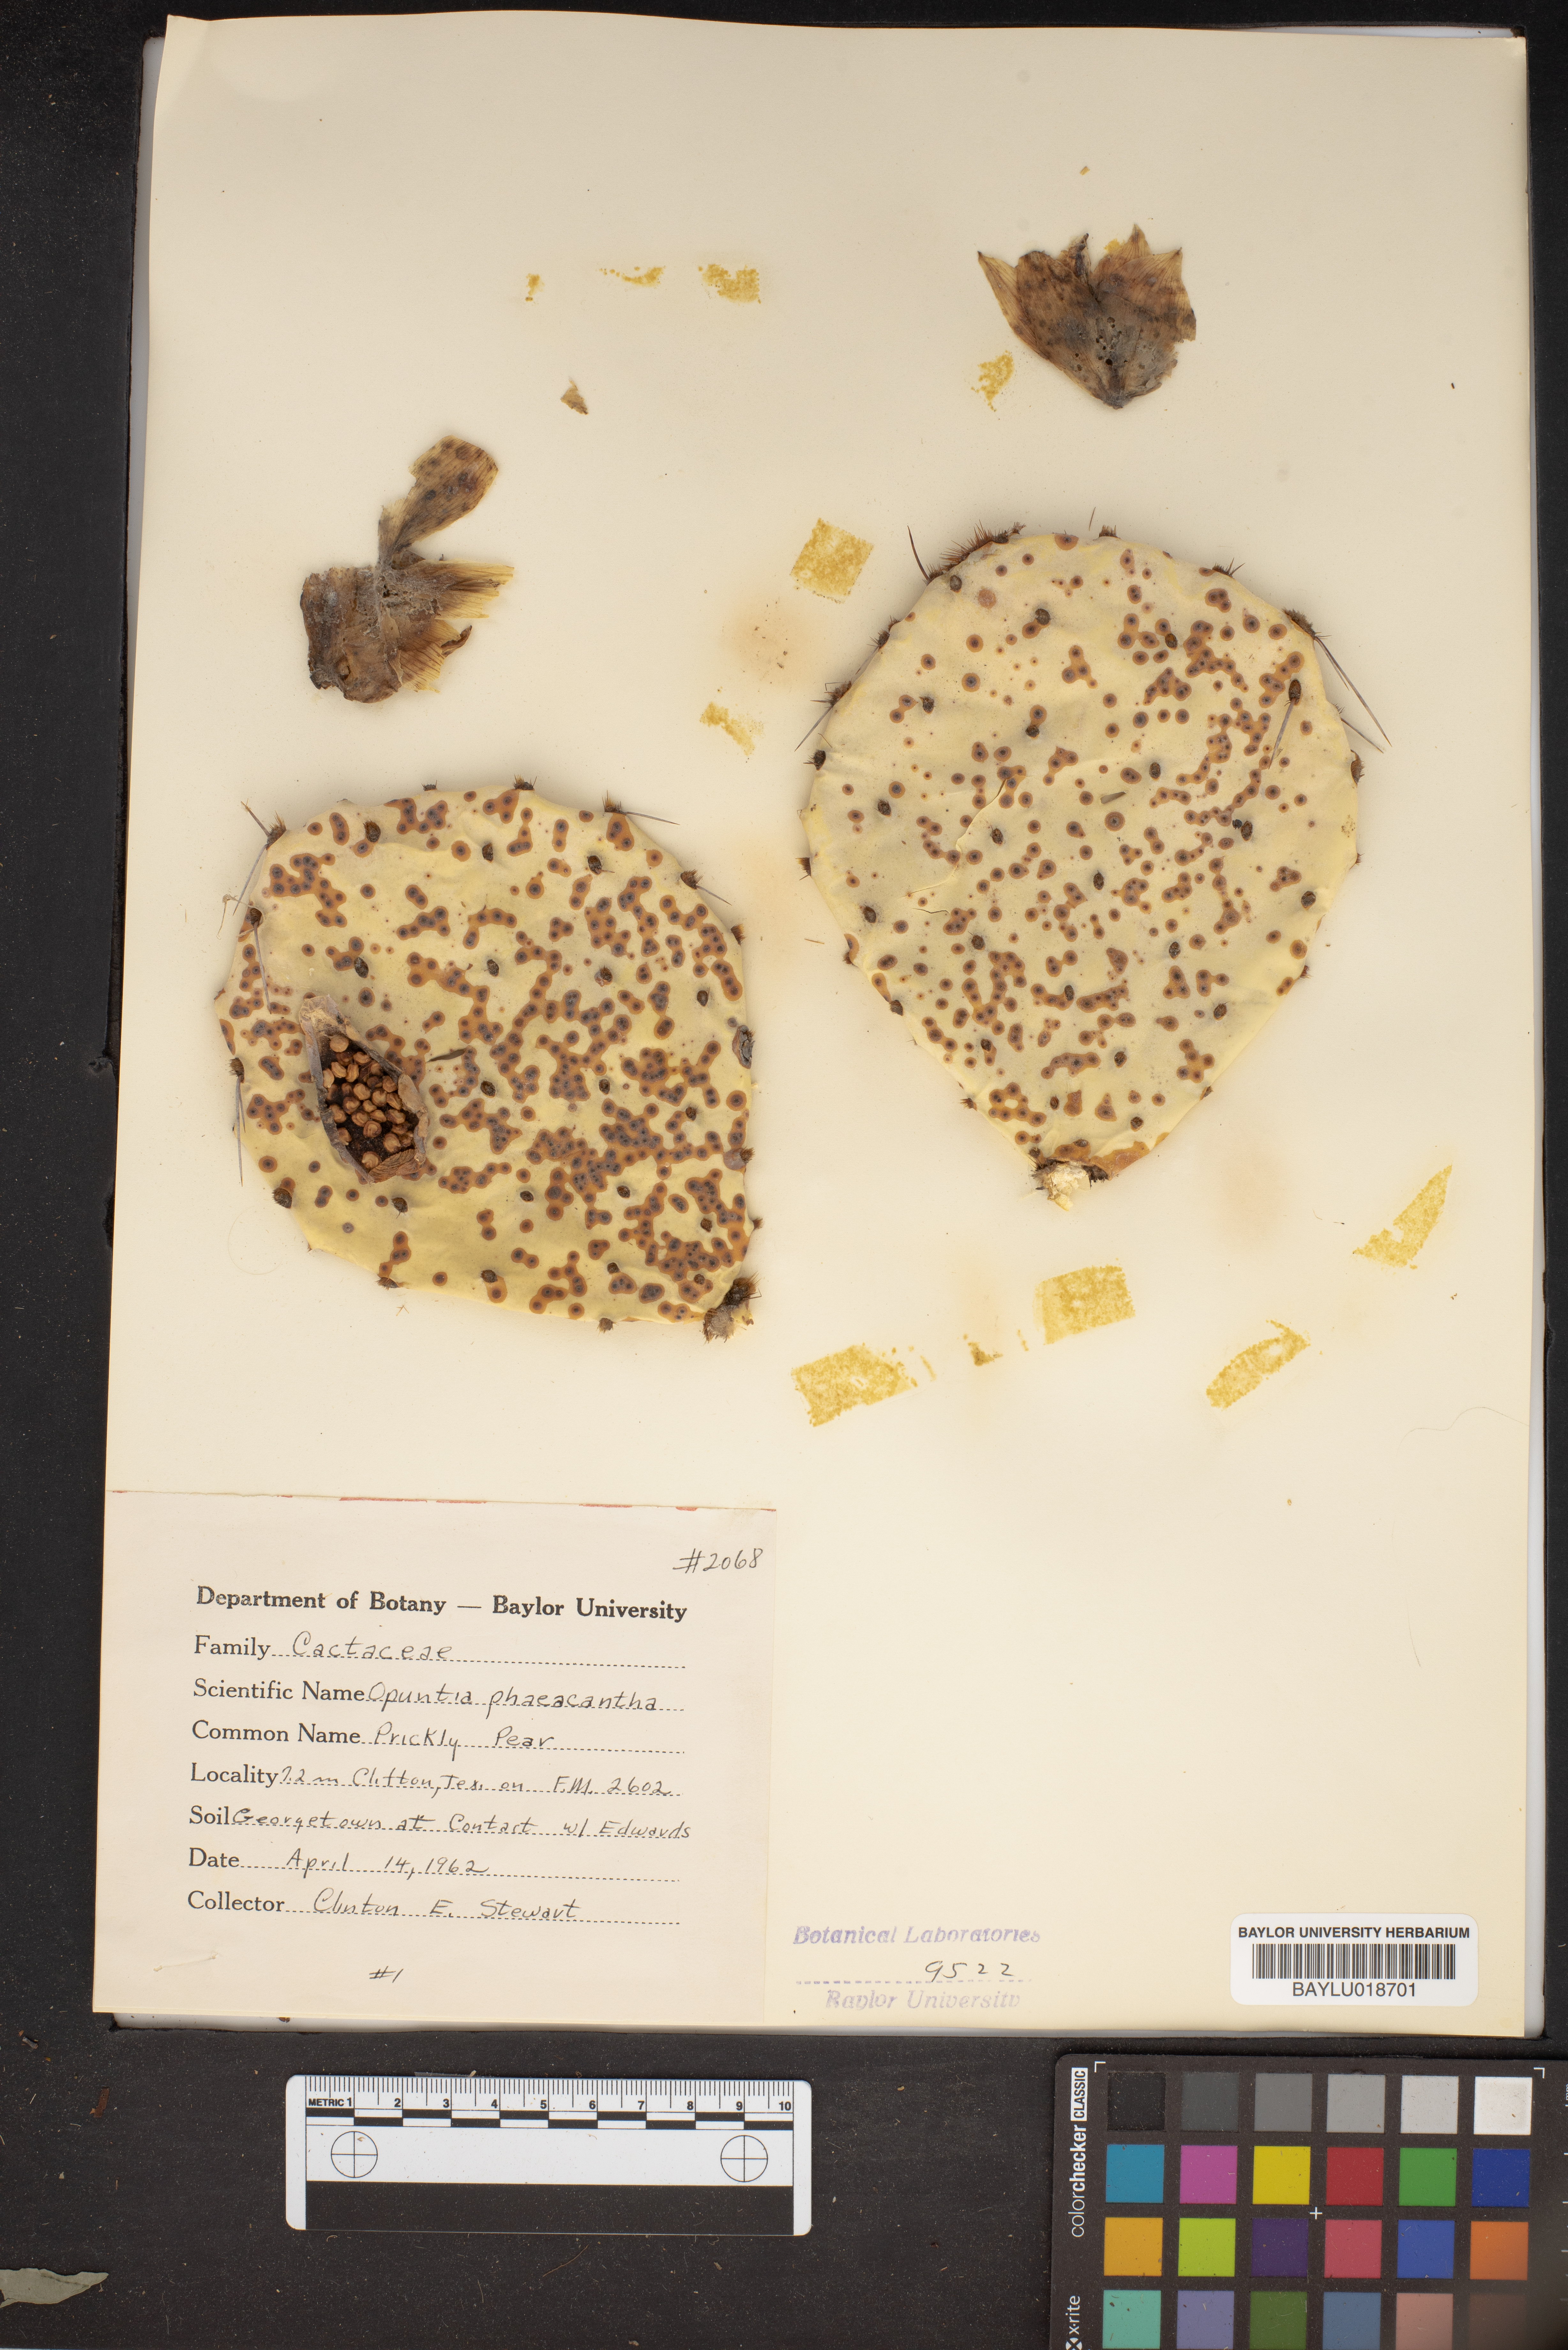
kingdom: Plantae
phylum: Tracheophyta
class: Magnoliopsida
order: Caryophyllales
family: Cactaceae
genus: Opuntia
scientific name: Opuntia phaeacantha
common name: New mexico prickly-pear
